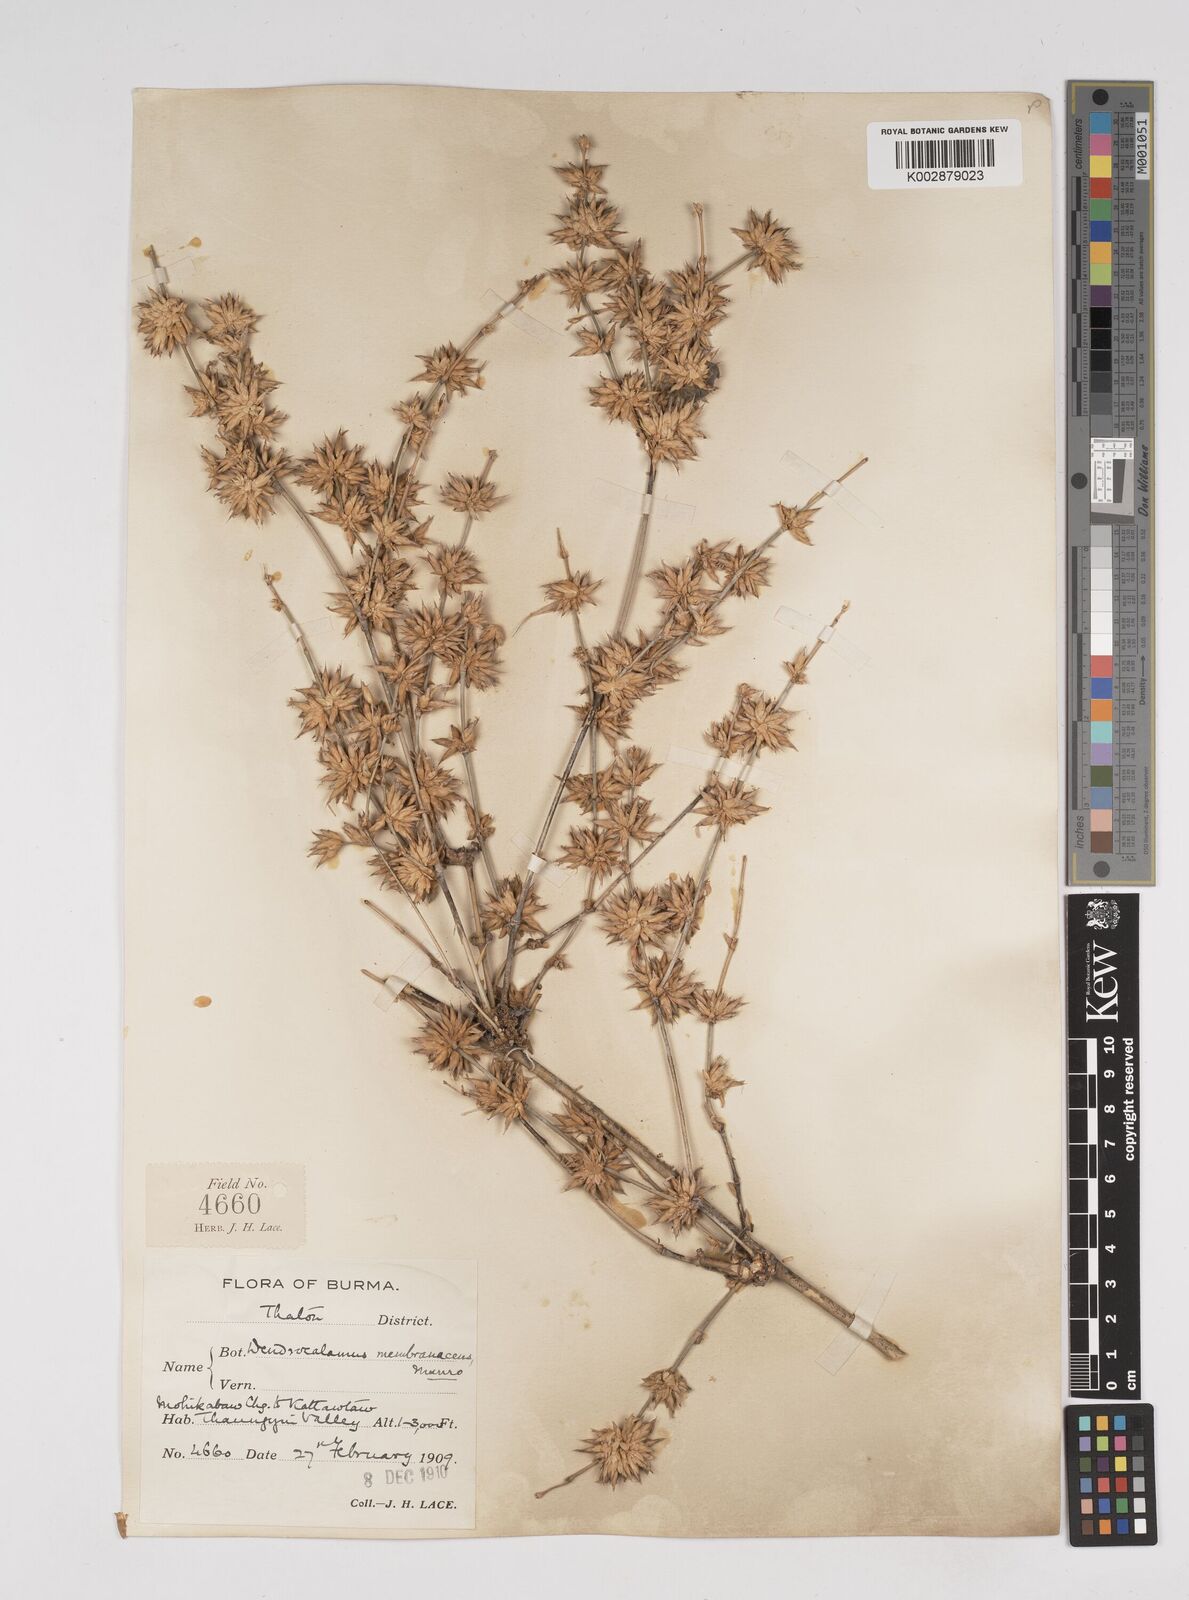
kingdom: Plantae
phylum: Tracheophyta
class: Liliopsida
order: Poales
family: Poaceae
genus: Dendrocalamus
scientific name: Dendrocalamus membranaceus
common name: White bamboo
